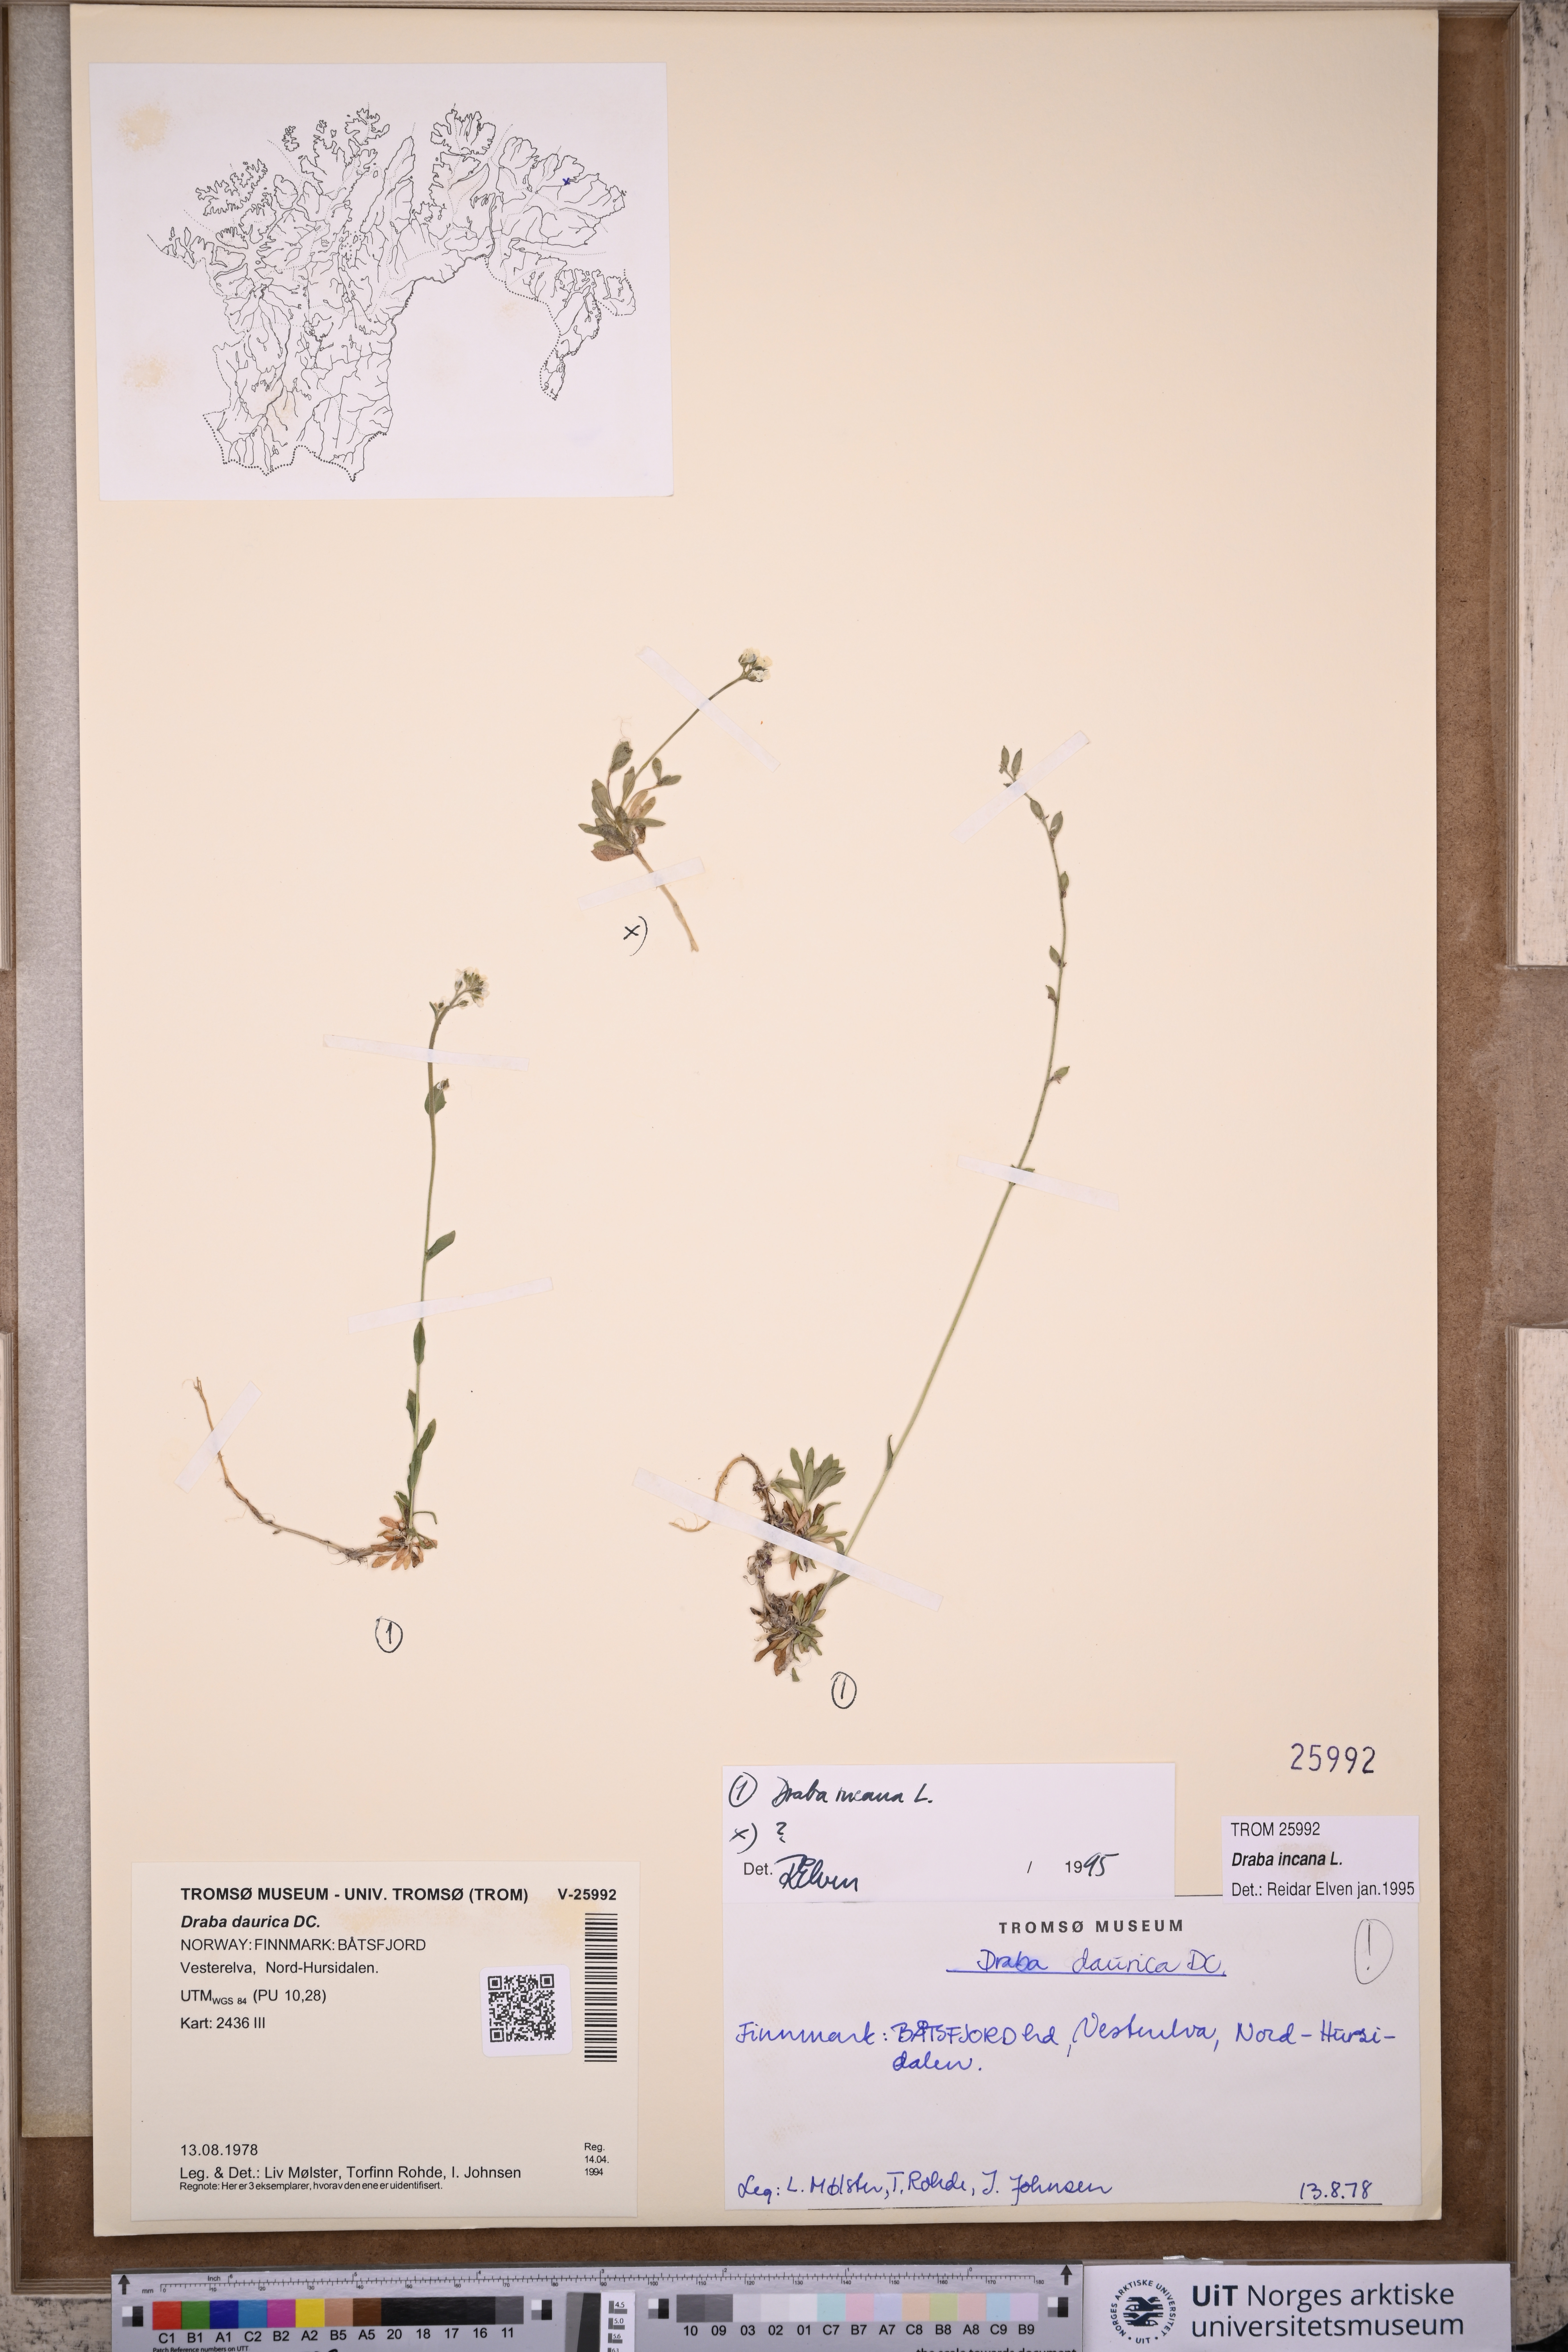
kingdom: Plantae
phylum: Tracheophyta
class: Magnoliopsida
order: Brassicales
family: Brassicaceae
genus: Draba
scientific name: Draba incana
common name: Hoary whitlow-grass
